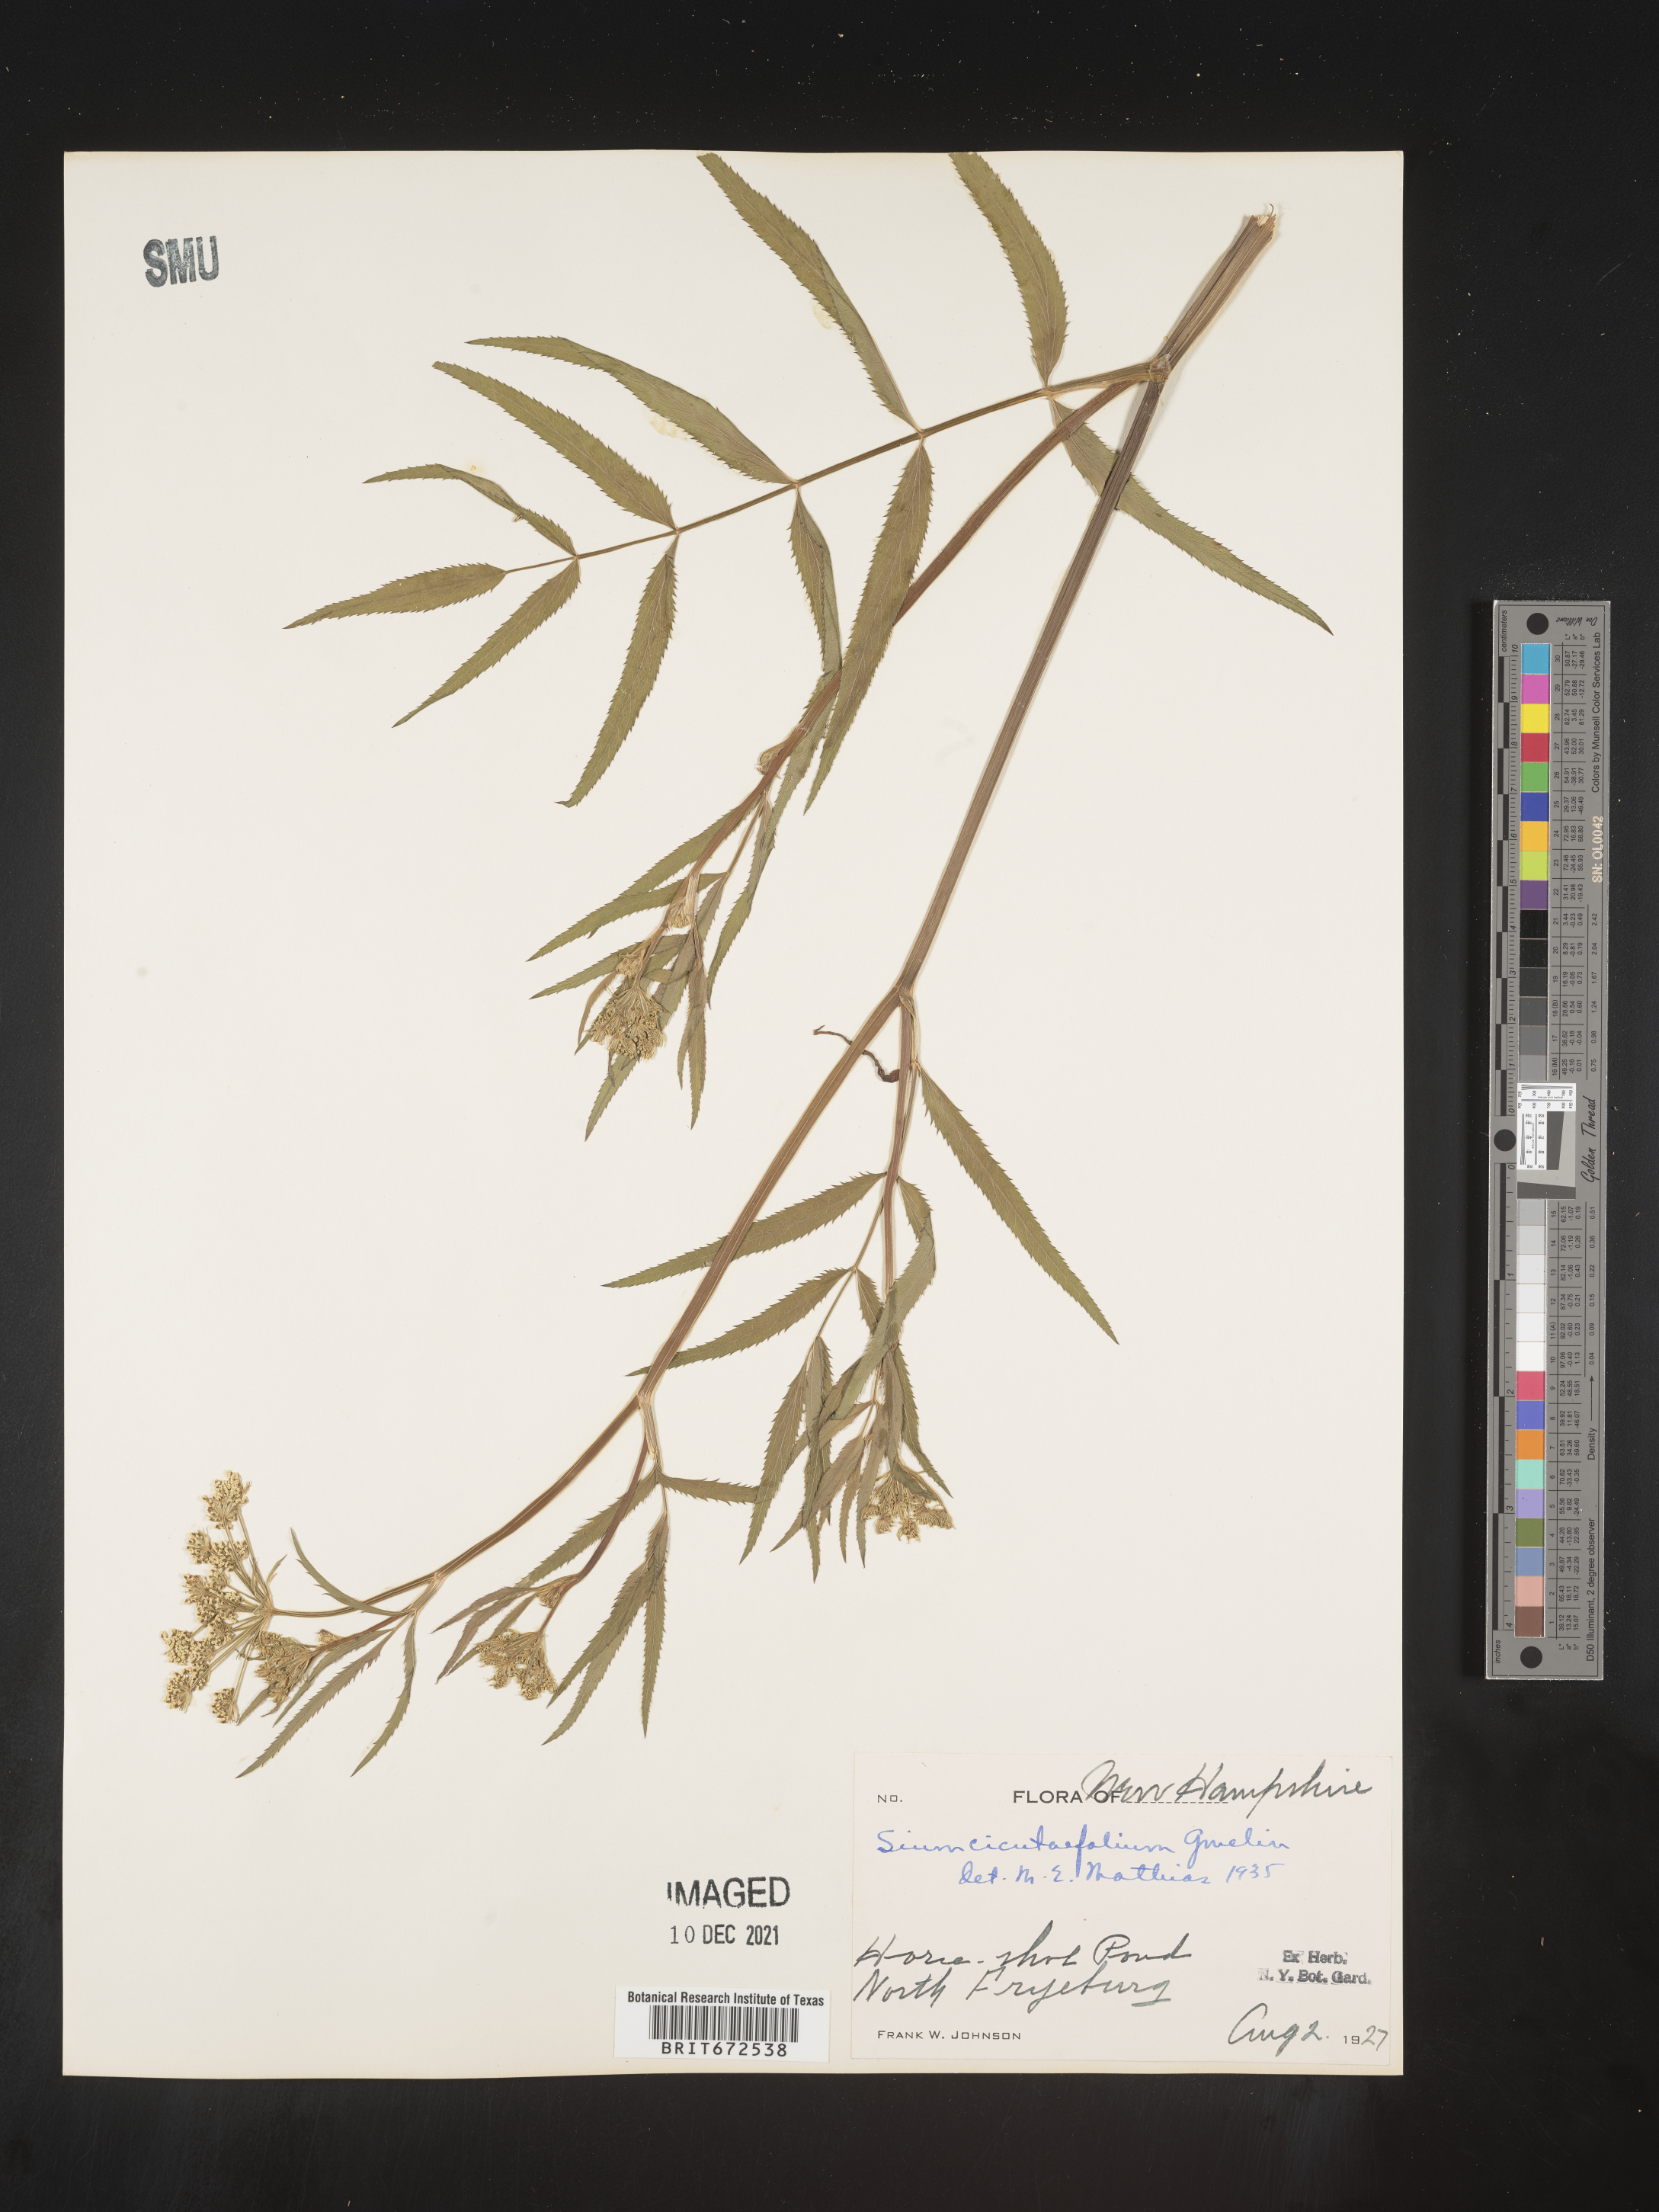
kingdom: Plantae
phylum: Tracheophyta
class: Magnoliopsida
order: Apiales
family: Apiaceae
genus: Sium
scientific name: Sium suave
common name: Hemlock water-parsnip
